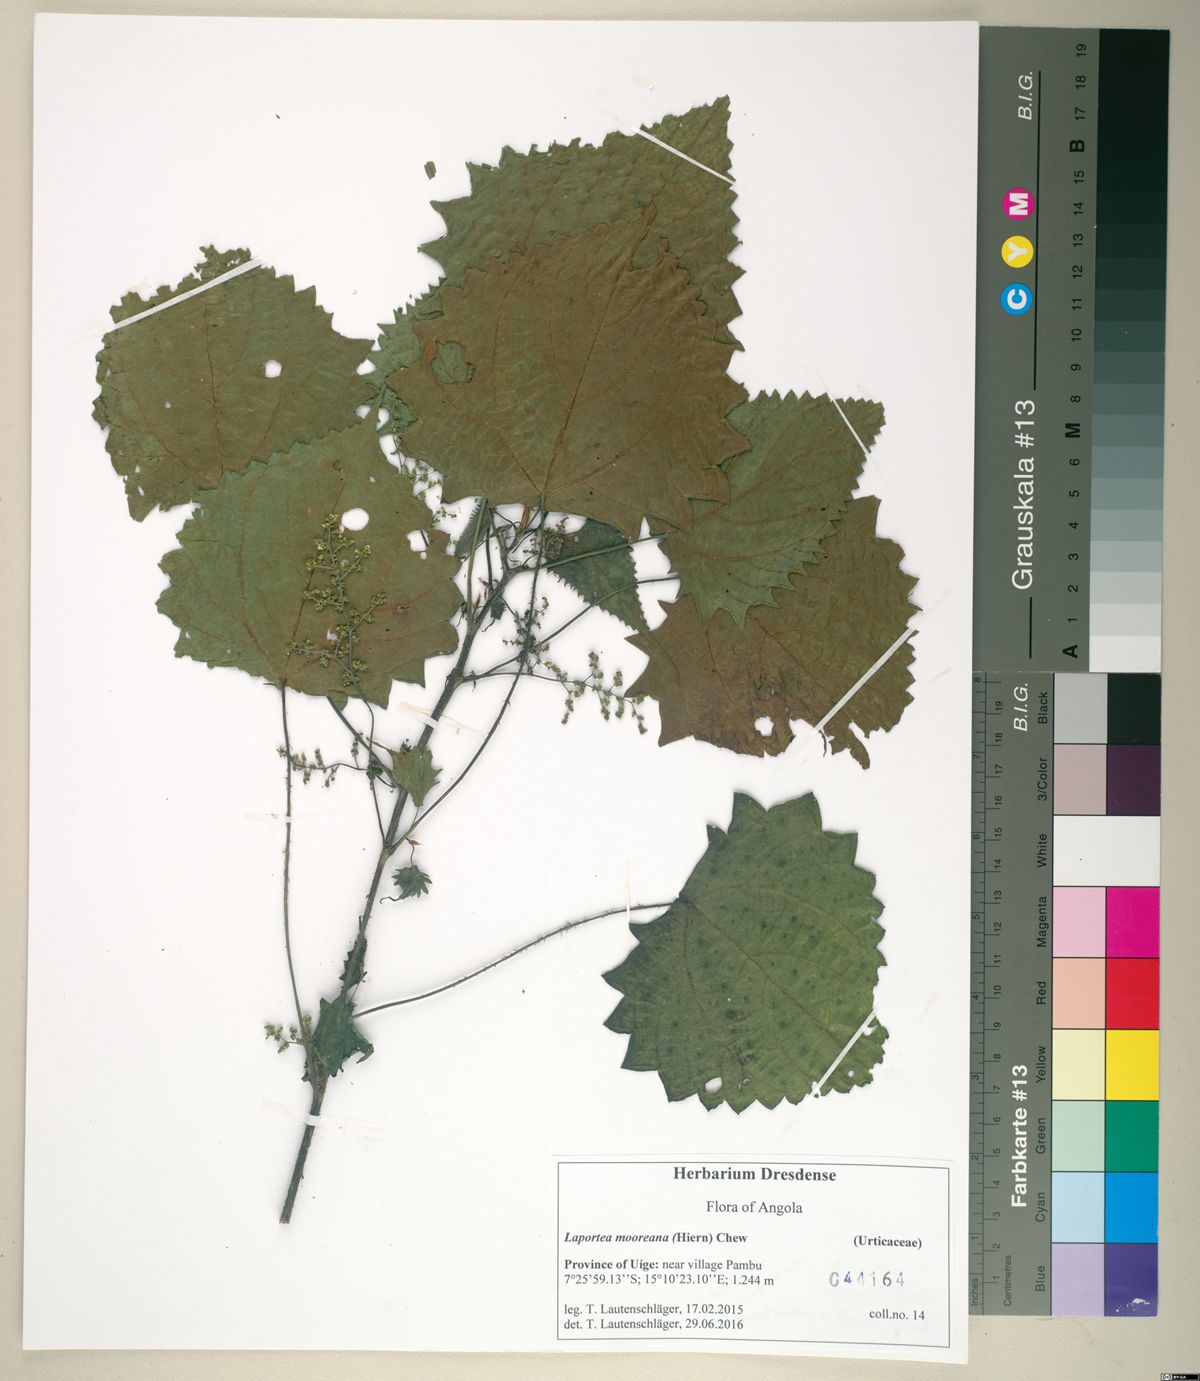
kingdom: Plantae
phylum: Tracheophyta
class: Magnoliopsida
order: Rosales
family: Urticaceae
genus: Laportea
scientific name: Laportea mooreana
